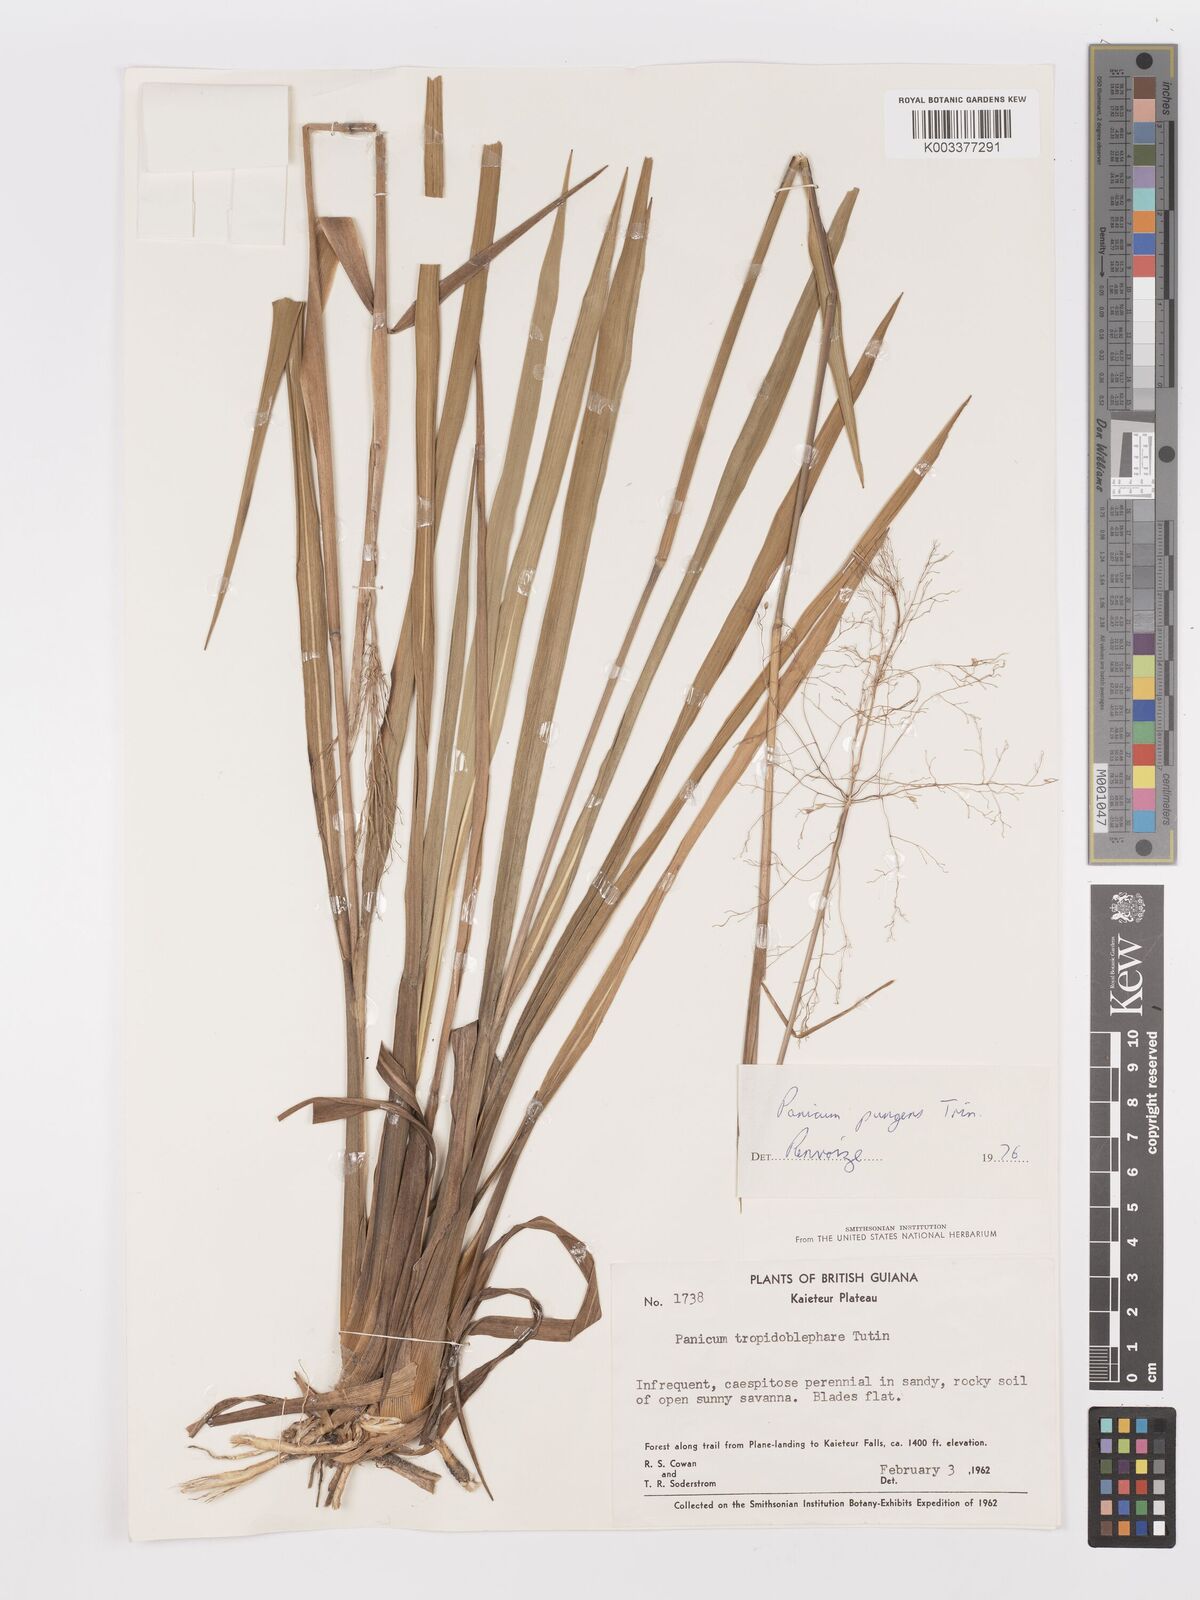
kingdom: Plantae
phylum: Tracheophyta
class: Liliopsida
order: Poales
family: Poaceae
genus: Apochloa
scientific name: Apochloa chnoodes
